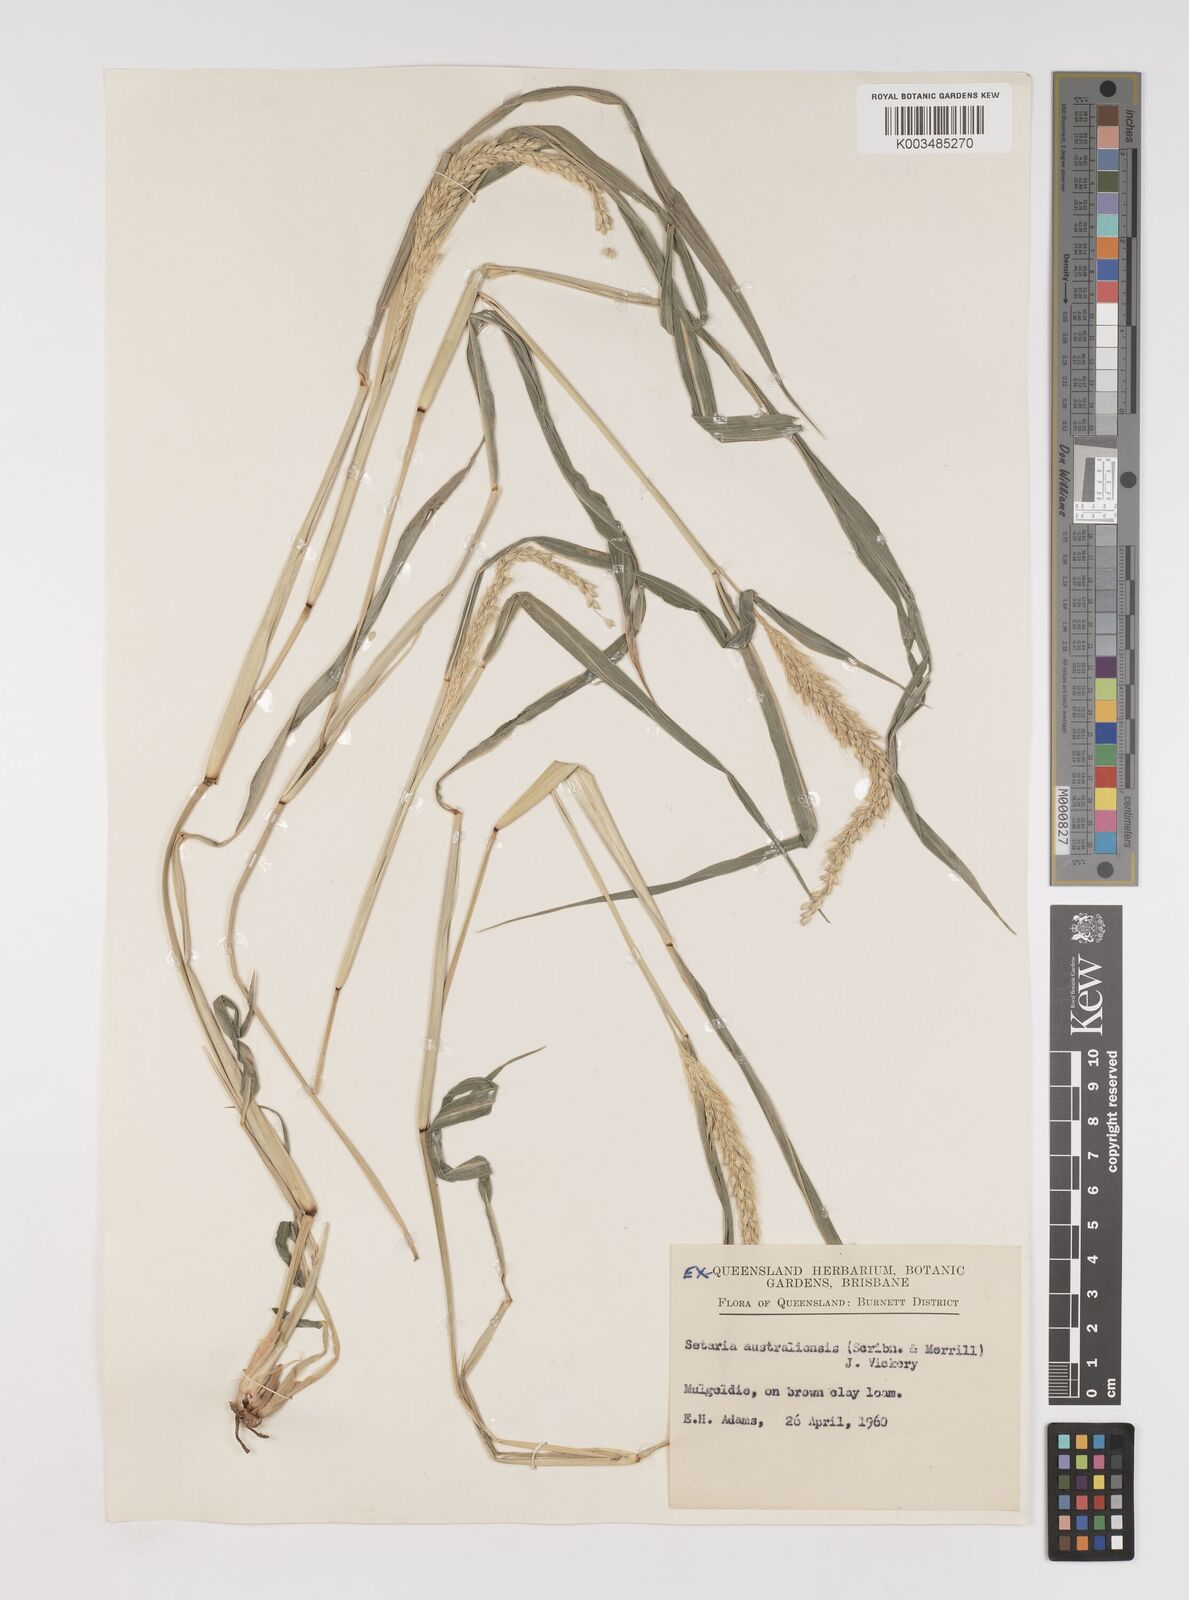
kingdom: Plantae
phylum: Tracheophyta
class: Liliopsida
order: Poales
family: Poaceae
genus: Setaria
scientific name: Setaria australiensis
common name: Scrub pigeon grass
